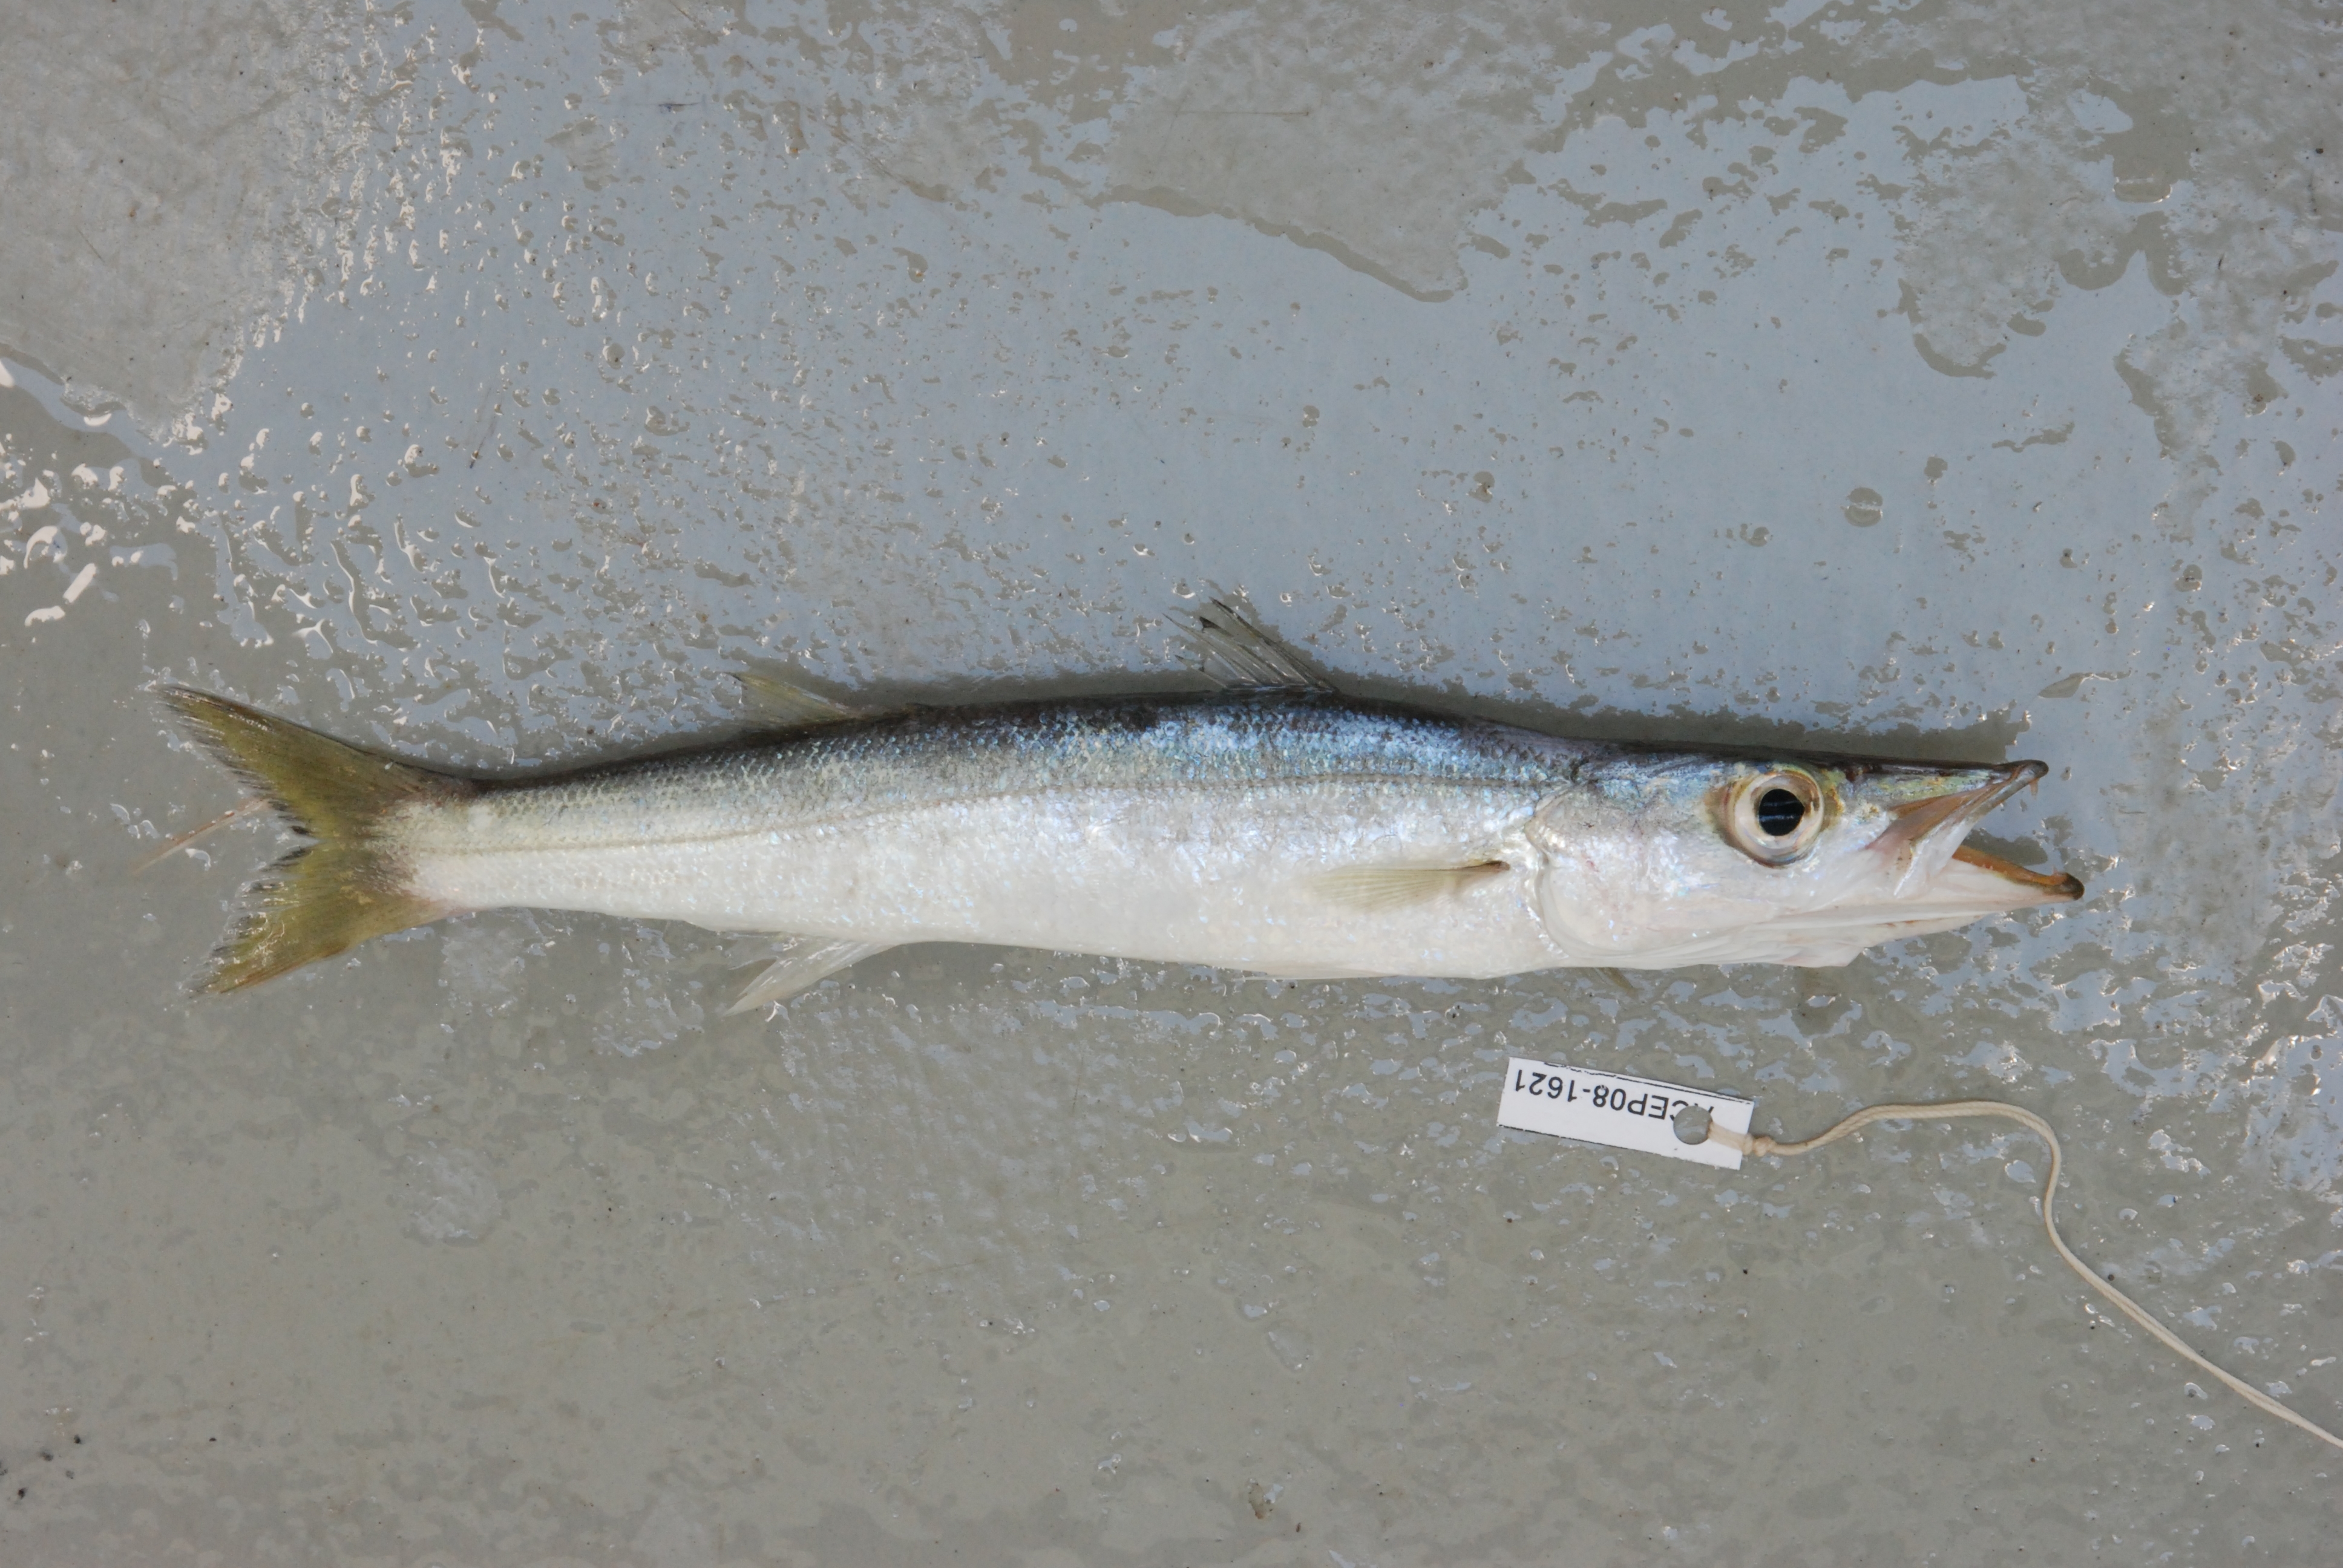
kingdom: Animalia
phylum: Chordata
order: Perciformes
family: Sphyraenidae
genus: Sphyraena
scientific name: Sphyraena flavicauda
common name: Yellowtail barracuda
